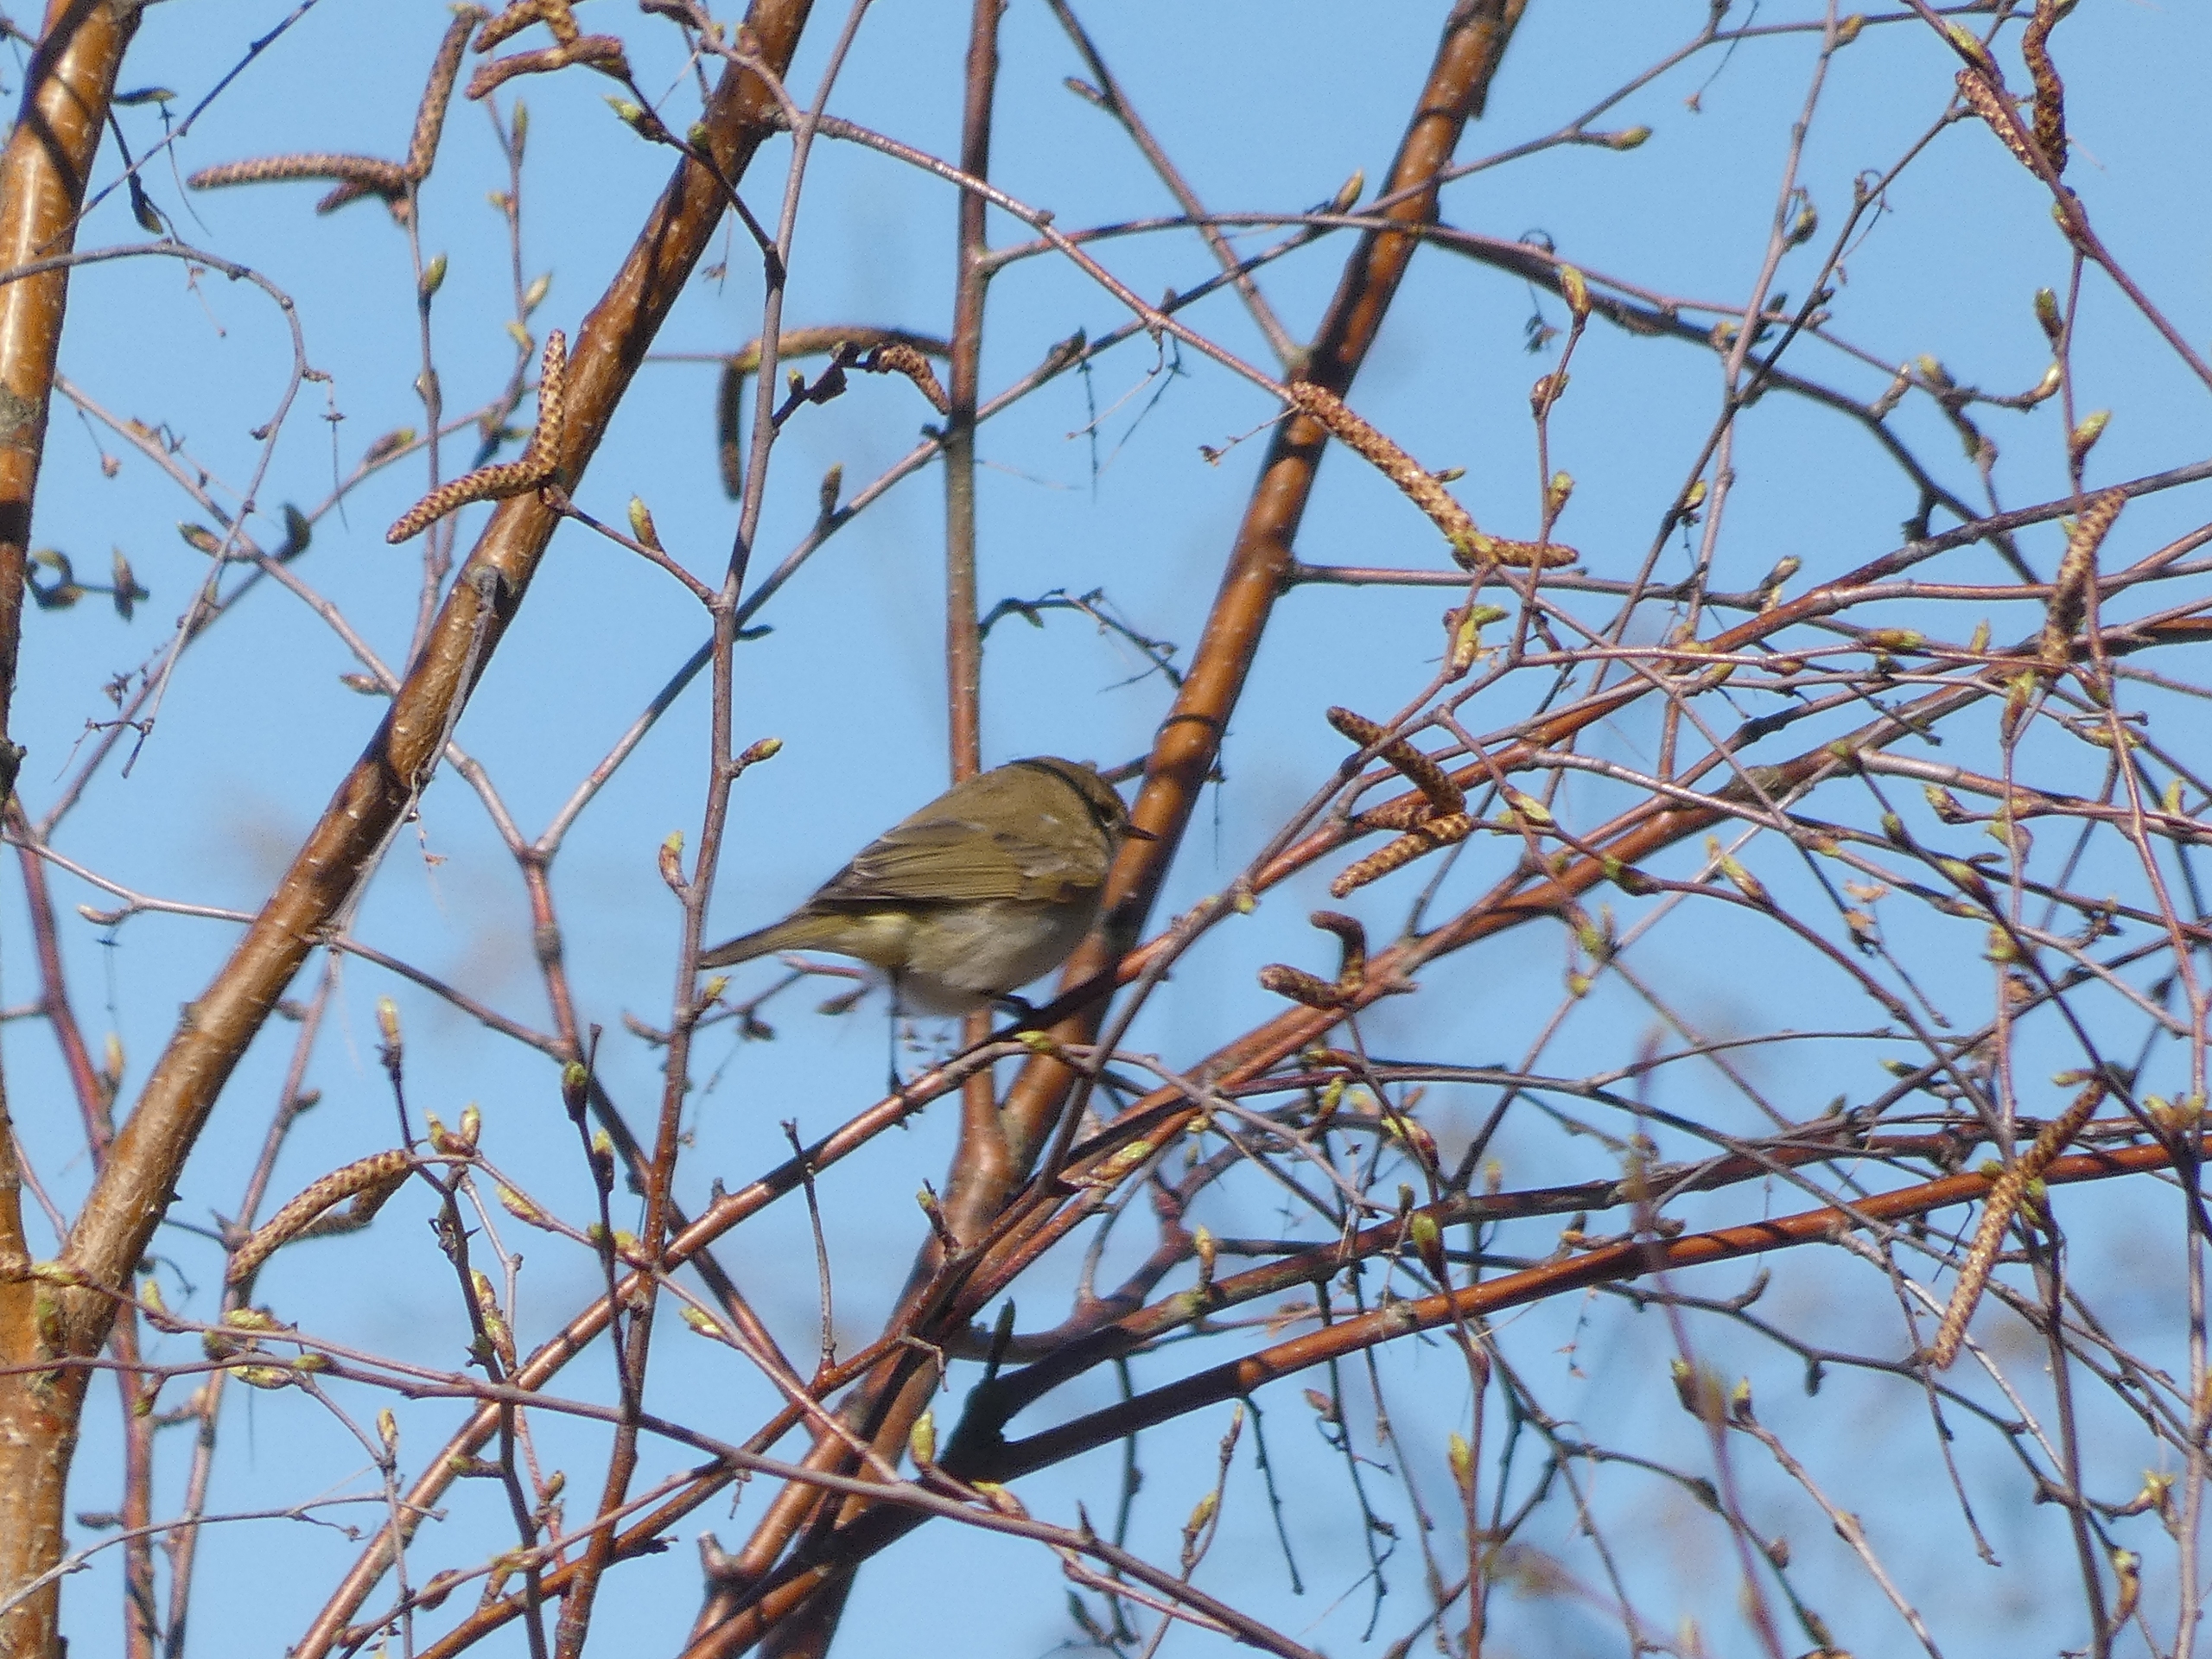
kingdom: Animalia
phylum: Chordata
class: Aves
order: Passeriformes
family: Phylloscopidae
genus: Phylloscopus
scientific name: Phylloscopus collybita
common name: Gransanger
